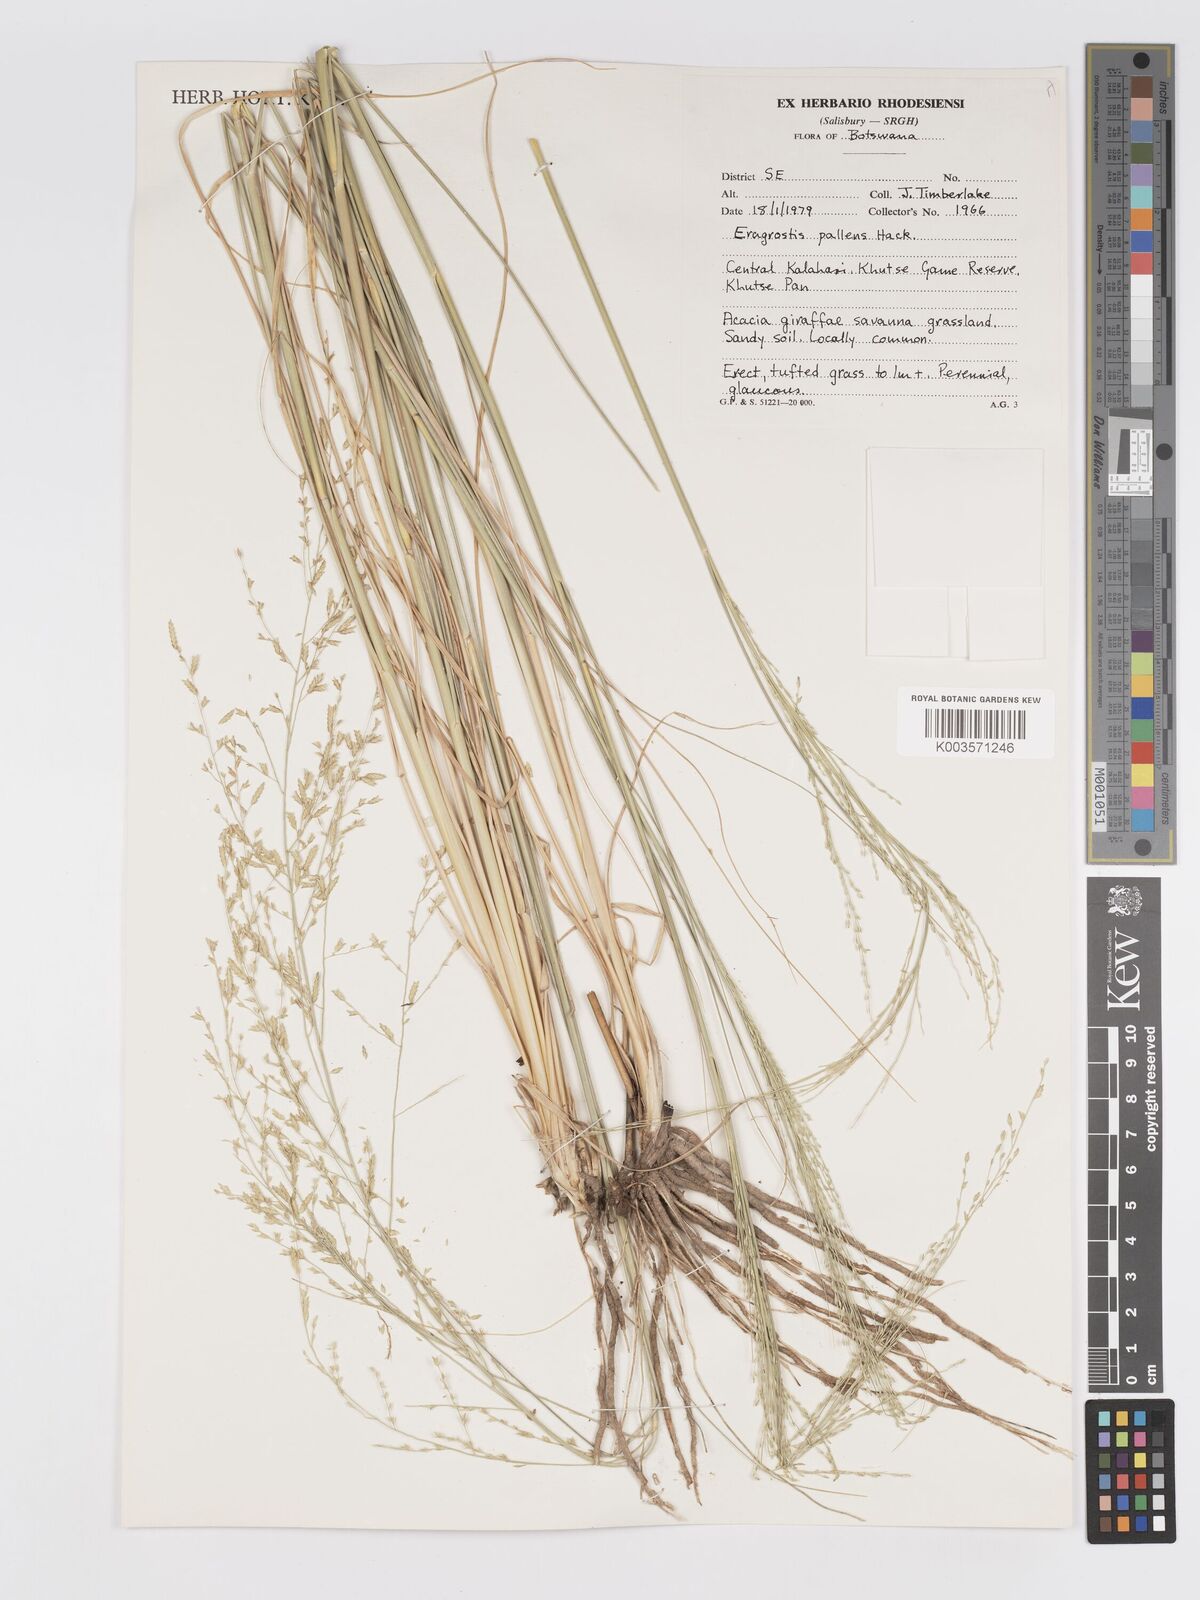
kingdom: Plantae
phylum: Tracheophyta
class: Liliopsida
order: Poales
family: Poaceae
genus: Eragrostis
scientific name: Eragrostis pallens
